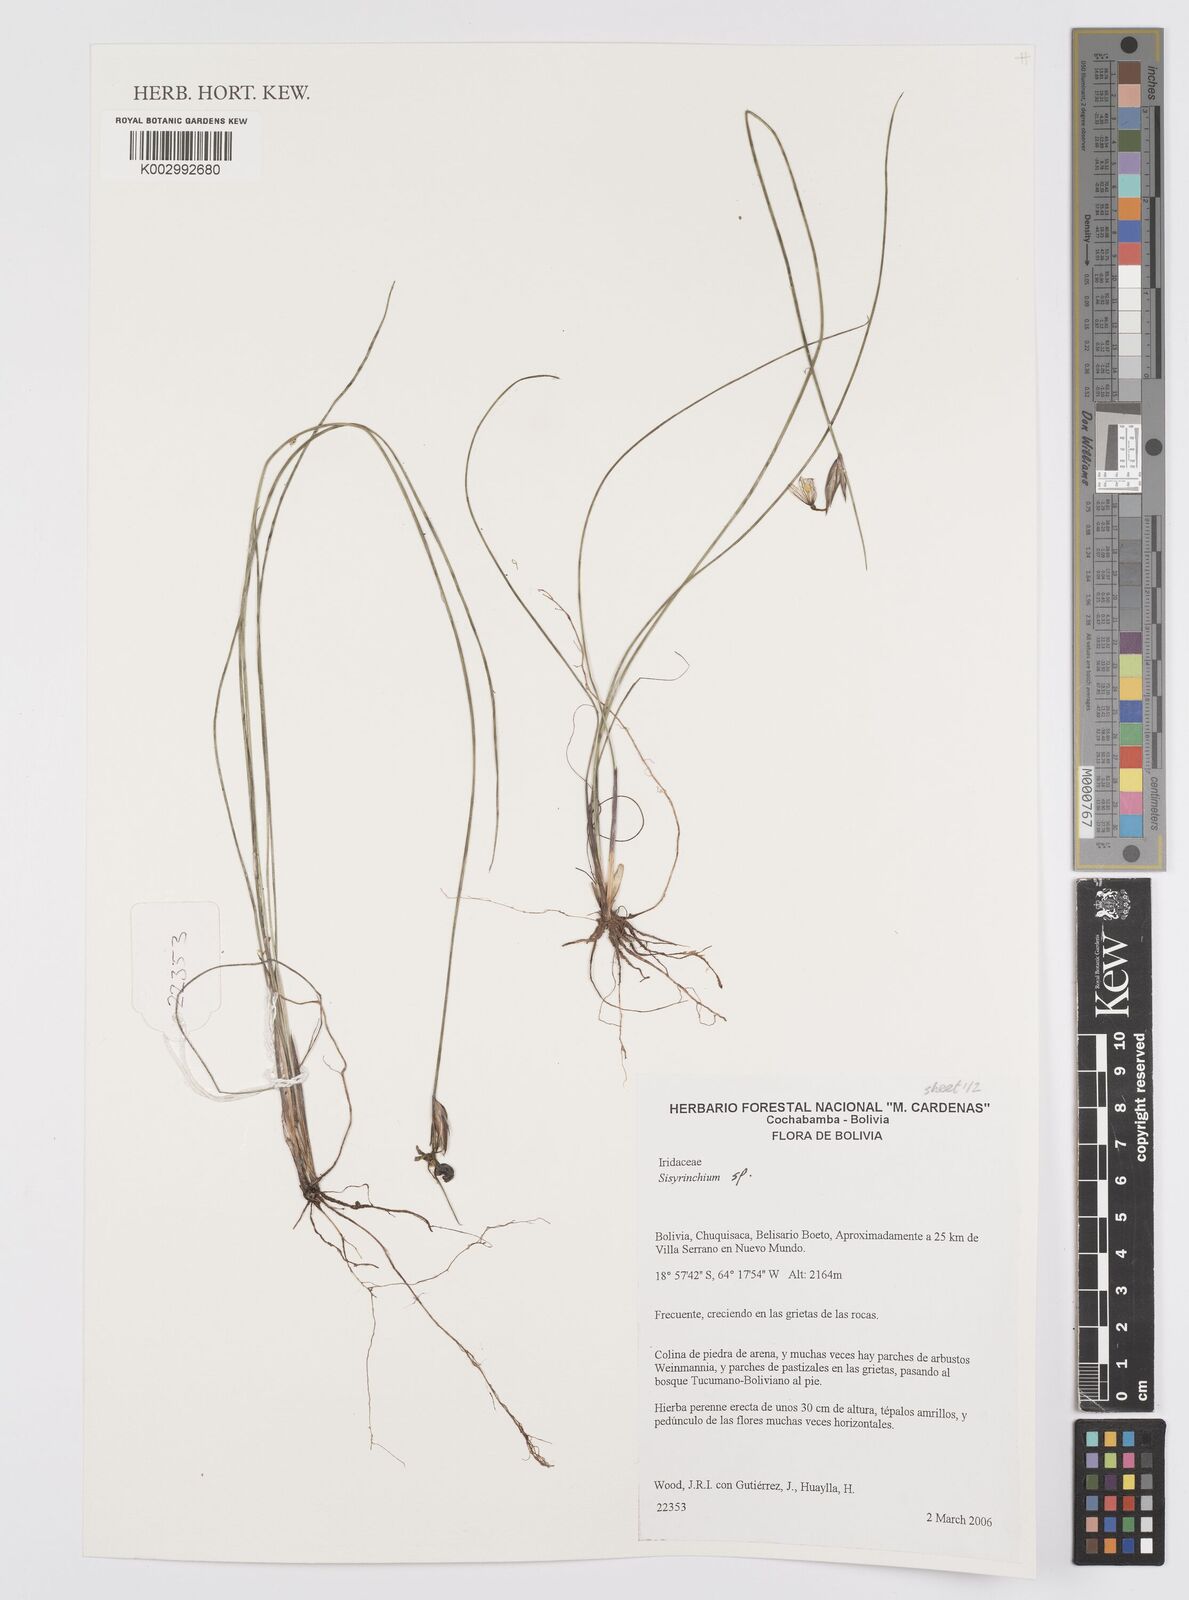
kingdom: Plantae
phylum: Tracheophyta
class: Liliopsida
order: Asparagales
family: Iridaceae
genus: Sisyrinchium
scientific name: Sisyrinchium
